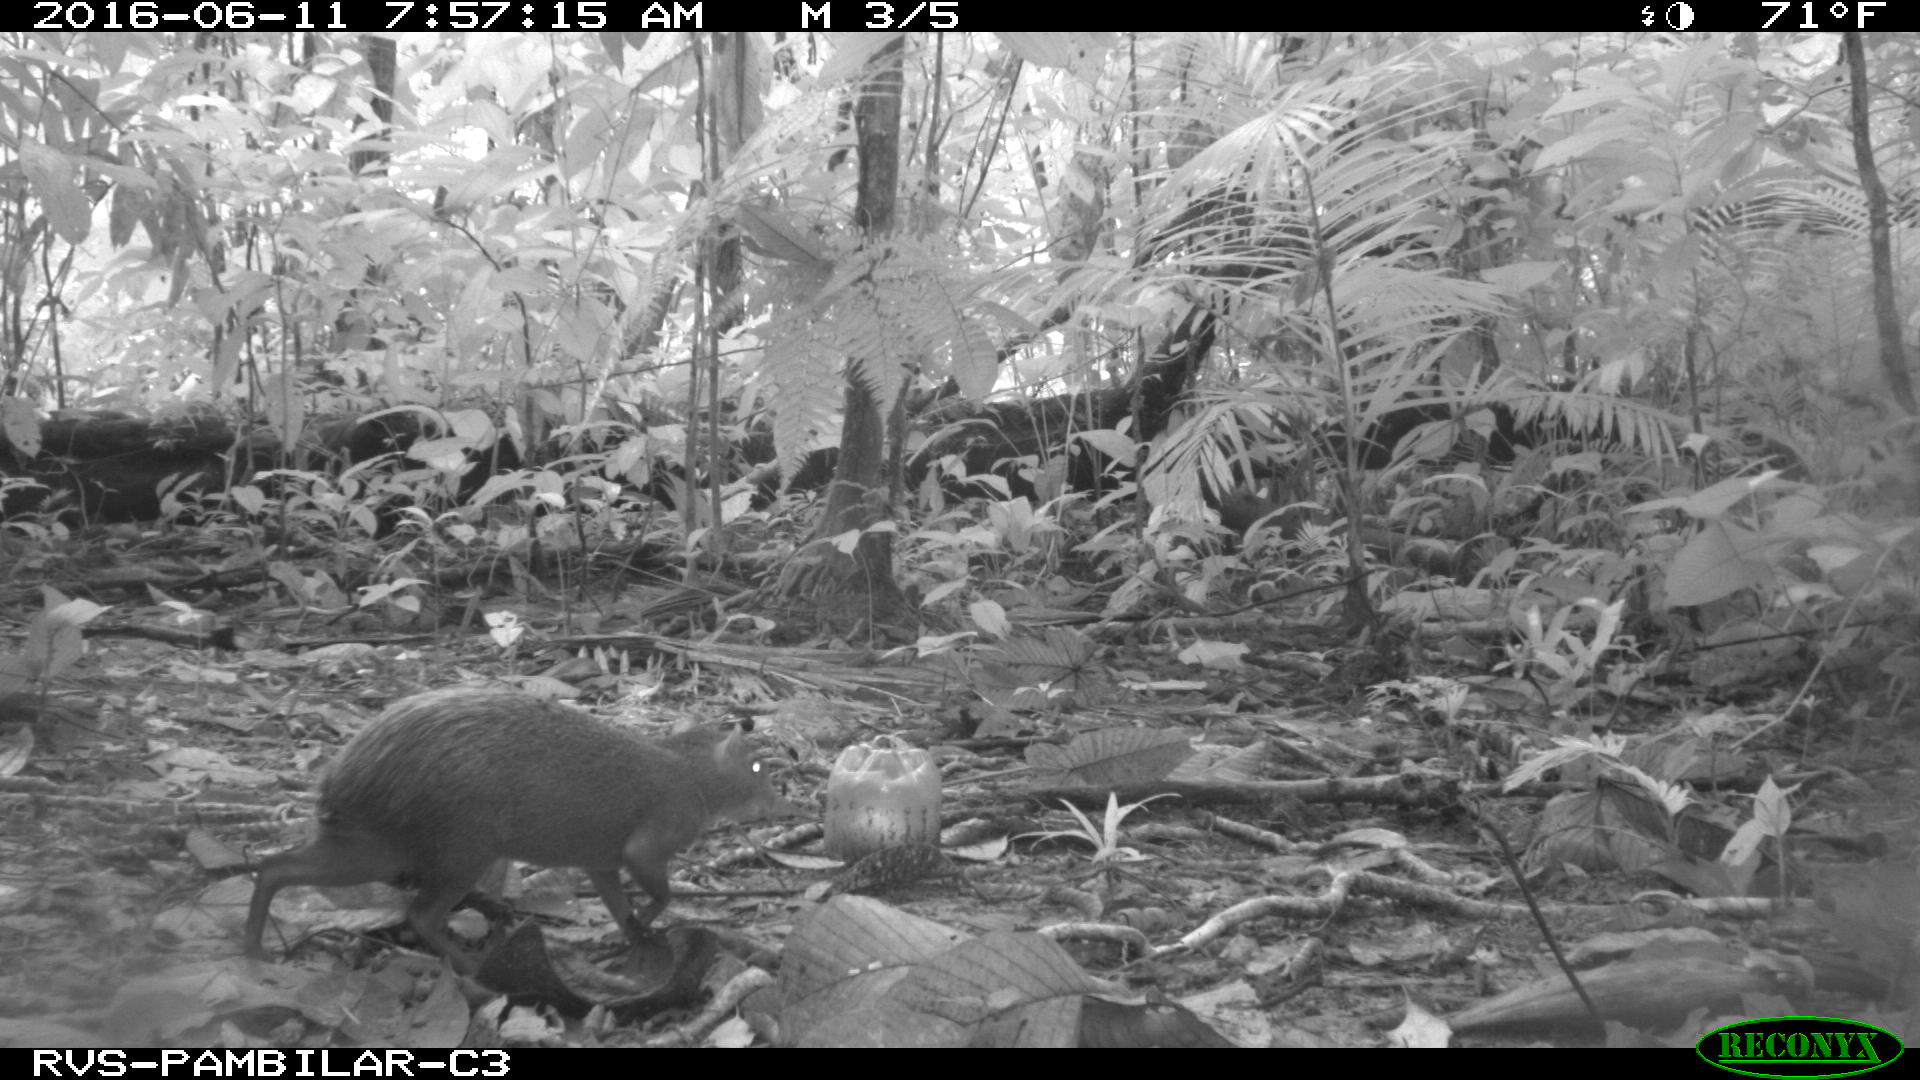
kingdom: Animalia
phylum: Chordata
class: Mammalia
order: Rodentia
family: Dasyproctidae
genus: Dasyprocta
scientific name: Dasyprocta punctata
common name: Central american agouti
